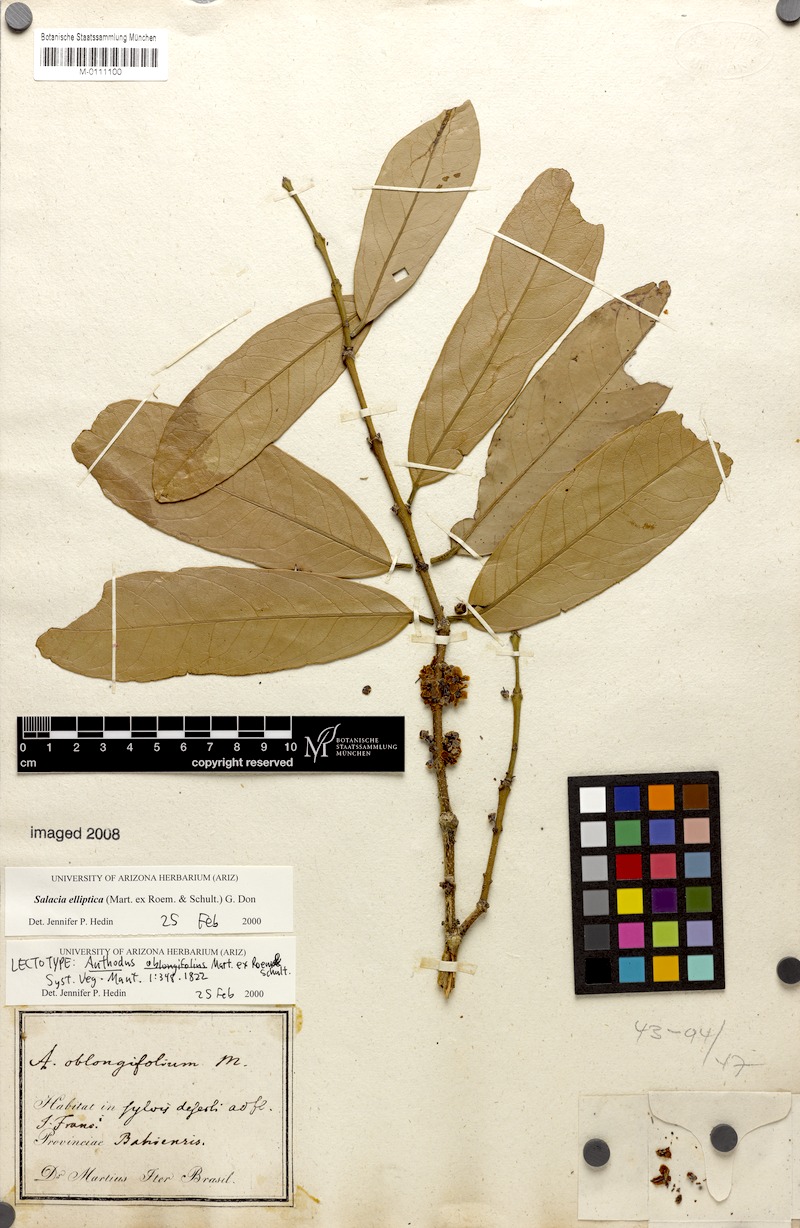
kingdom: Plantae
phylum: Tracheophyta
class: Magnoliopsida
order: Celastrales
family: Celastraceae
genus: Salacia
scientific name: Salacia elliptica
